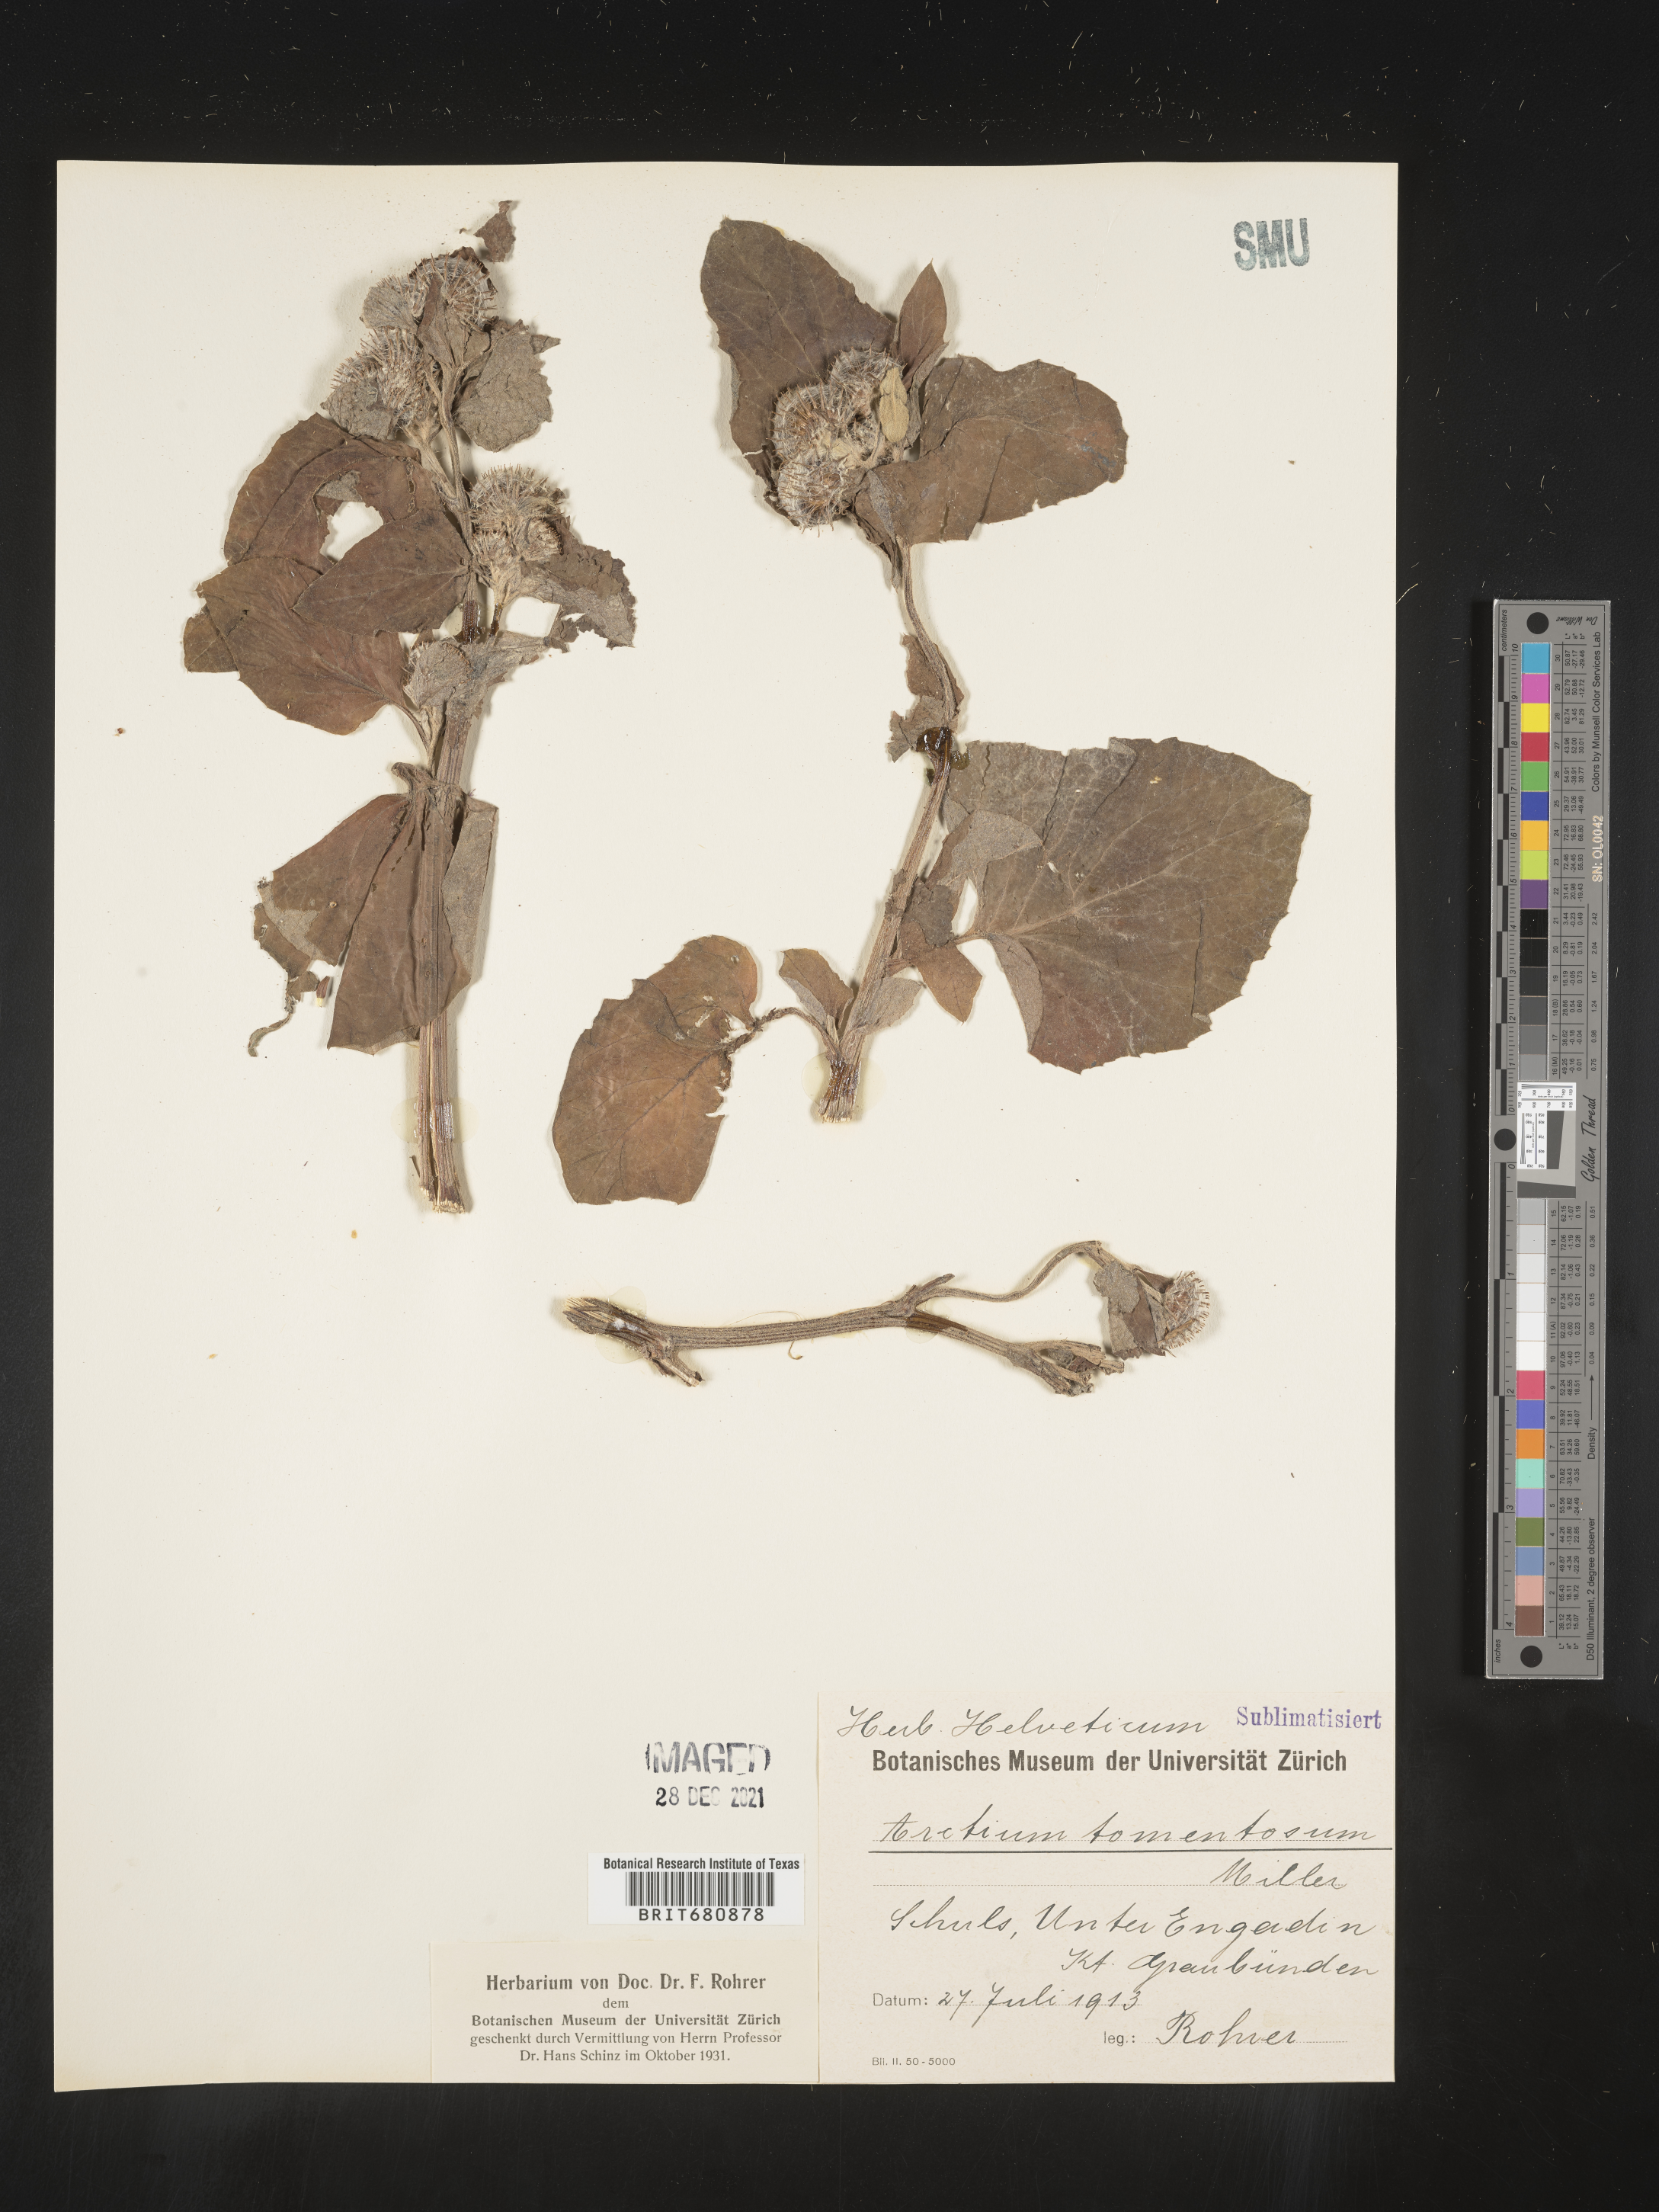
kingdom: Plantae
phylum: Tracheophyta
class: Magnoliopsida
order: Asterales
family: Asteraceae
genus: Arctium
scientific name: Arctium tomentosum
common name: Woolly burdock
